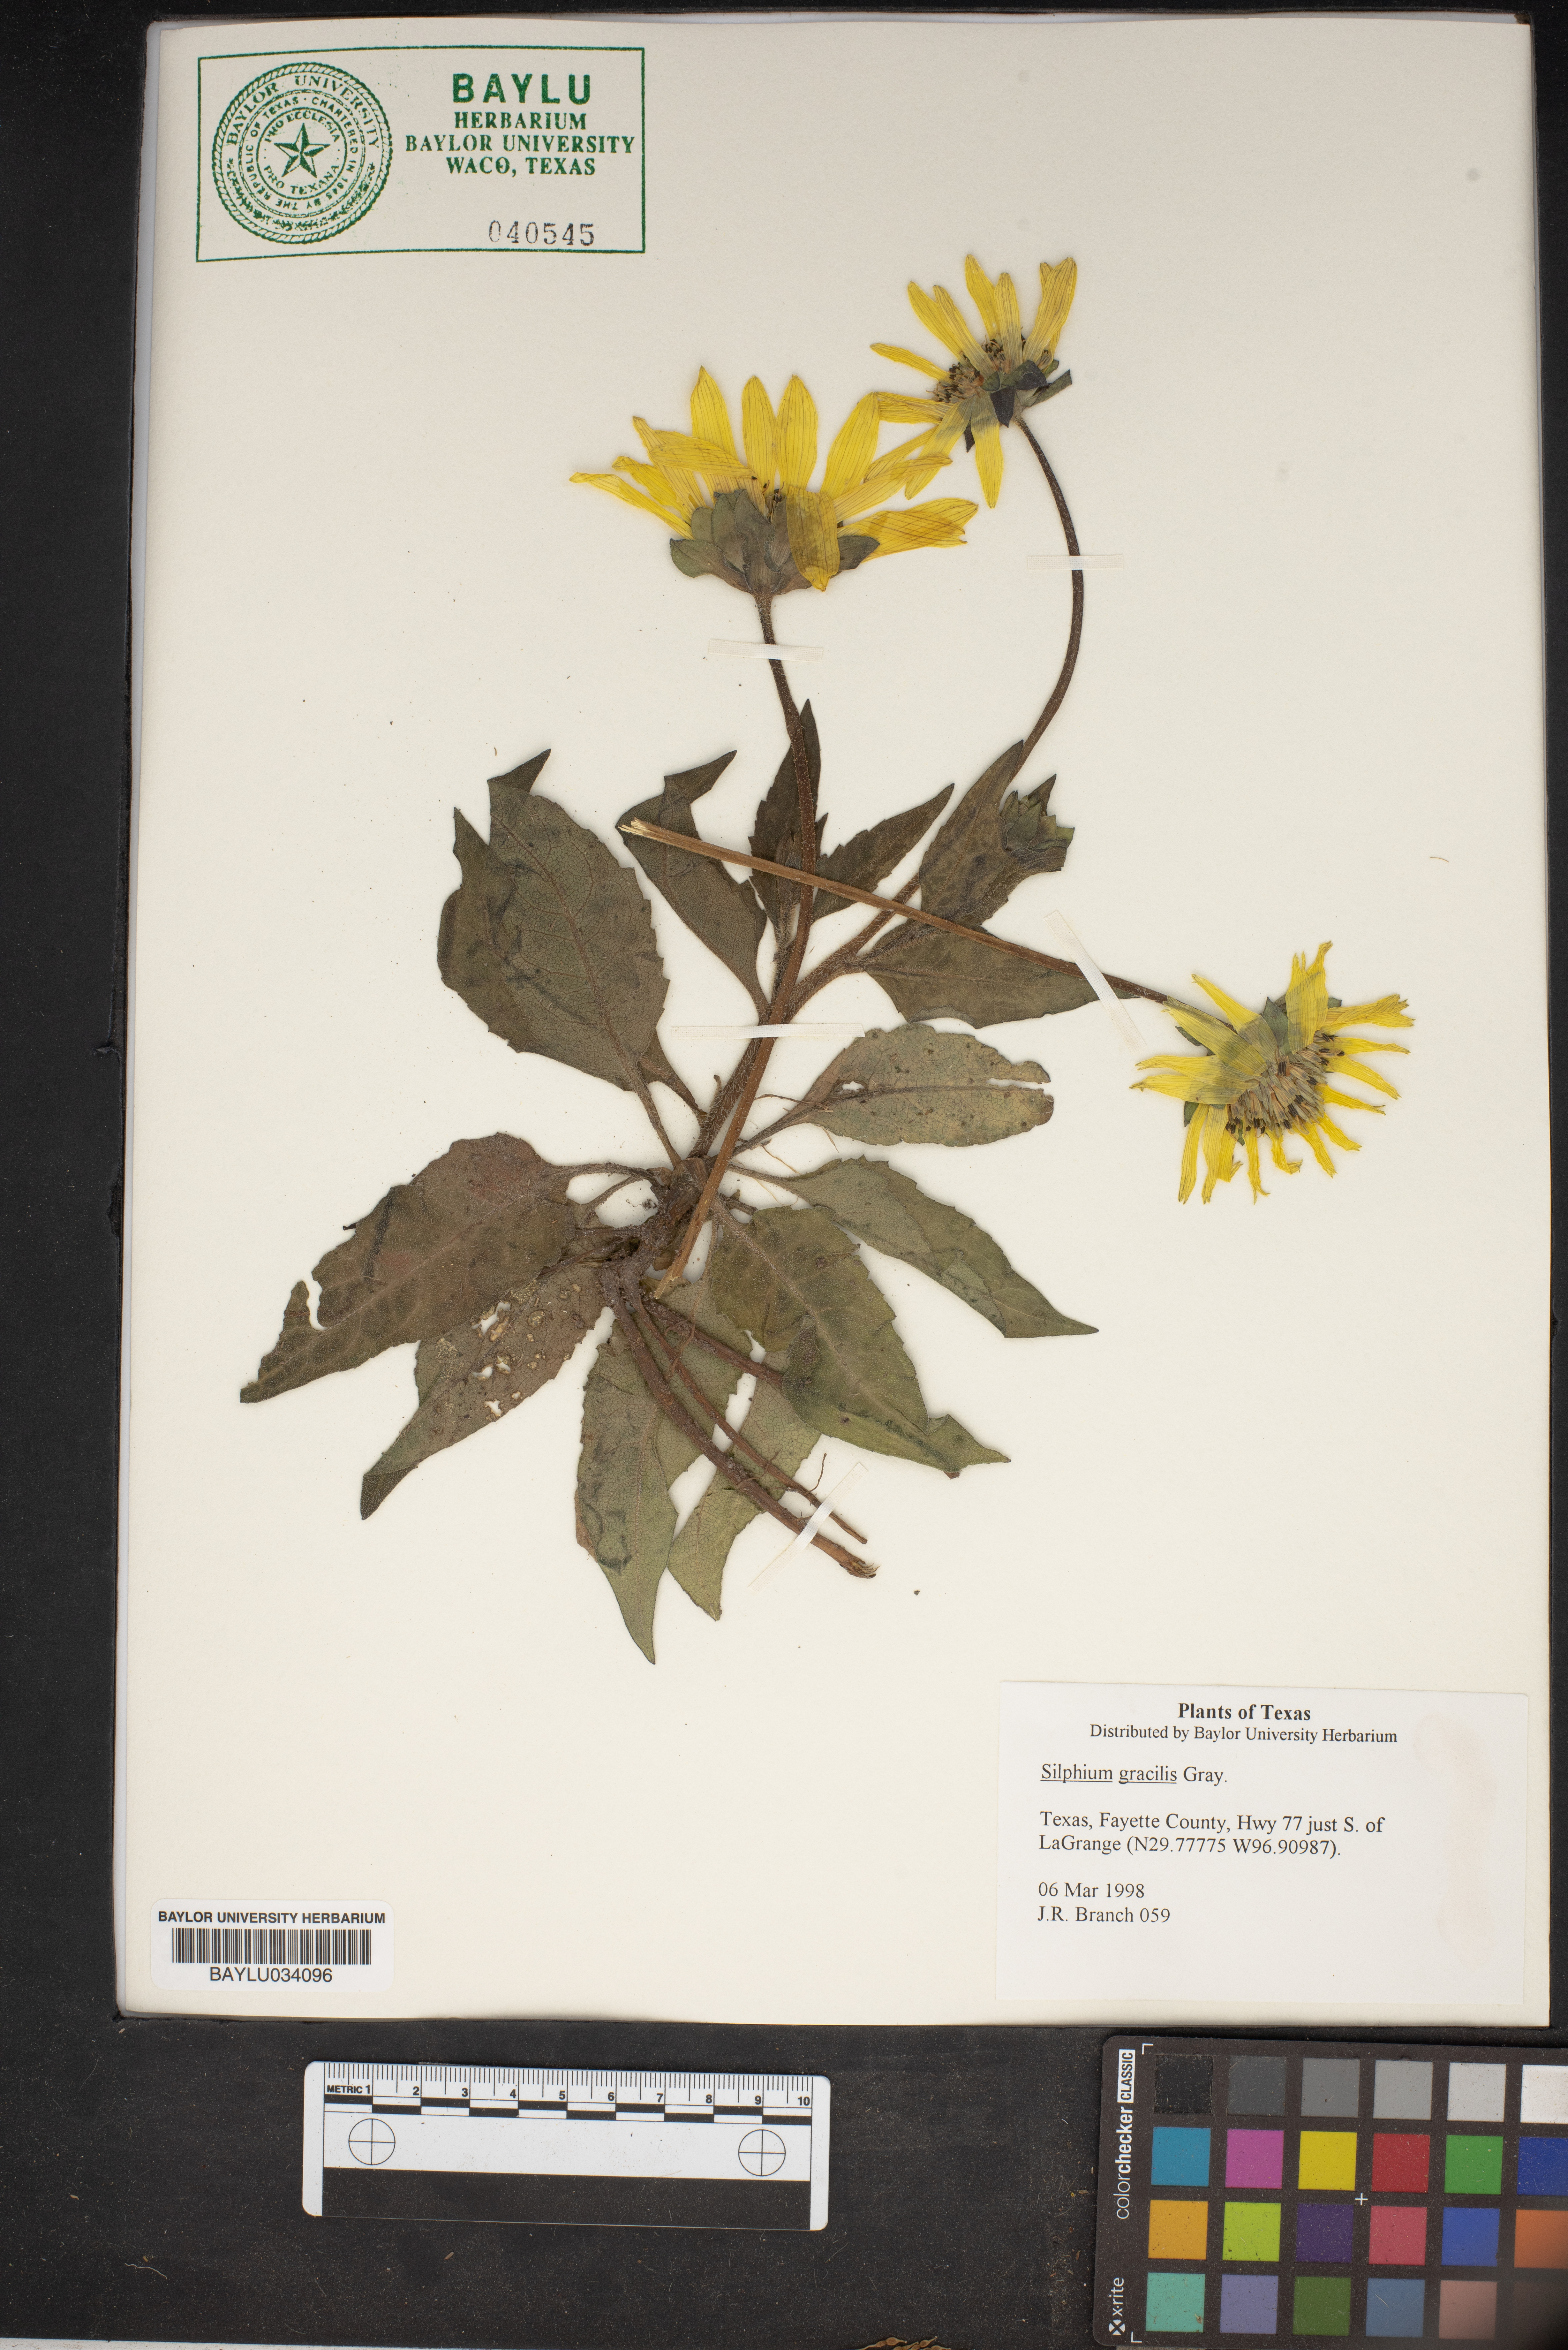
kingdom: Plantae
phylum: Tracheophyta
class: Magnoliopsida
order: Asterales
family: Asteraceae
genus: Silphium
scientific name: Silphium radula
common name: Roughleaf rosinweed
